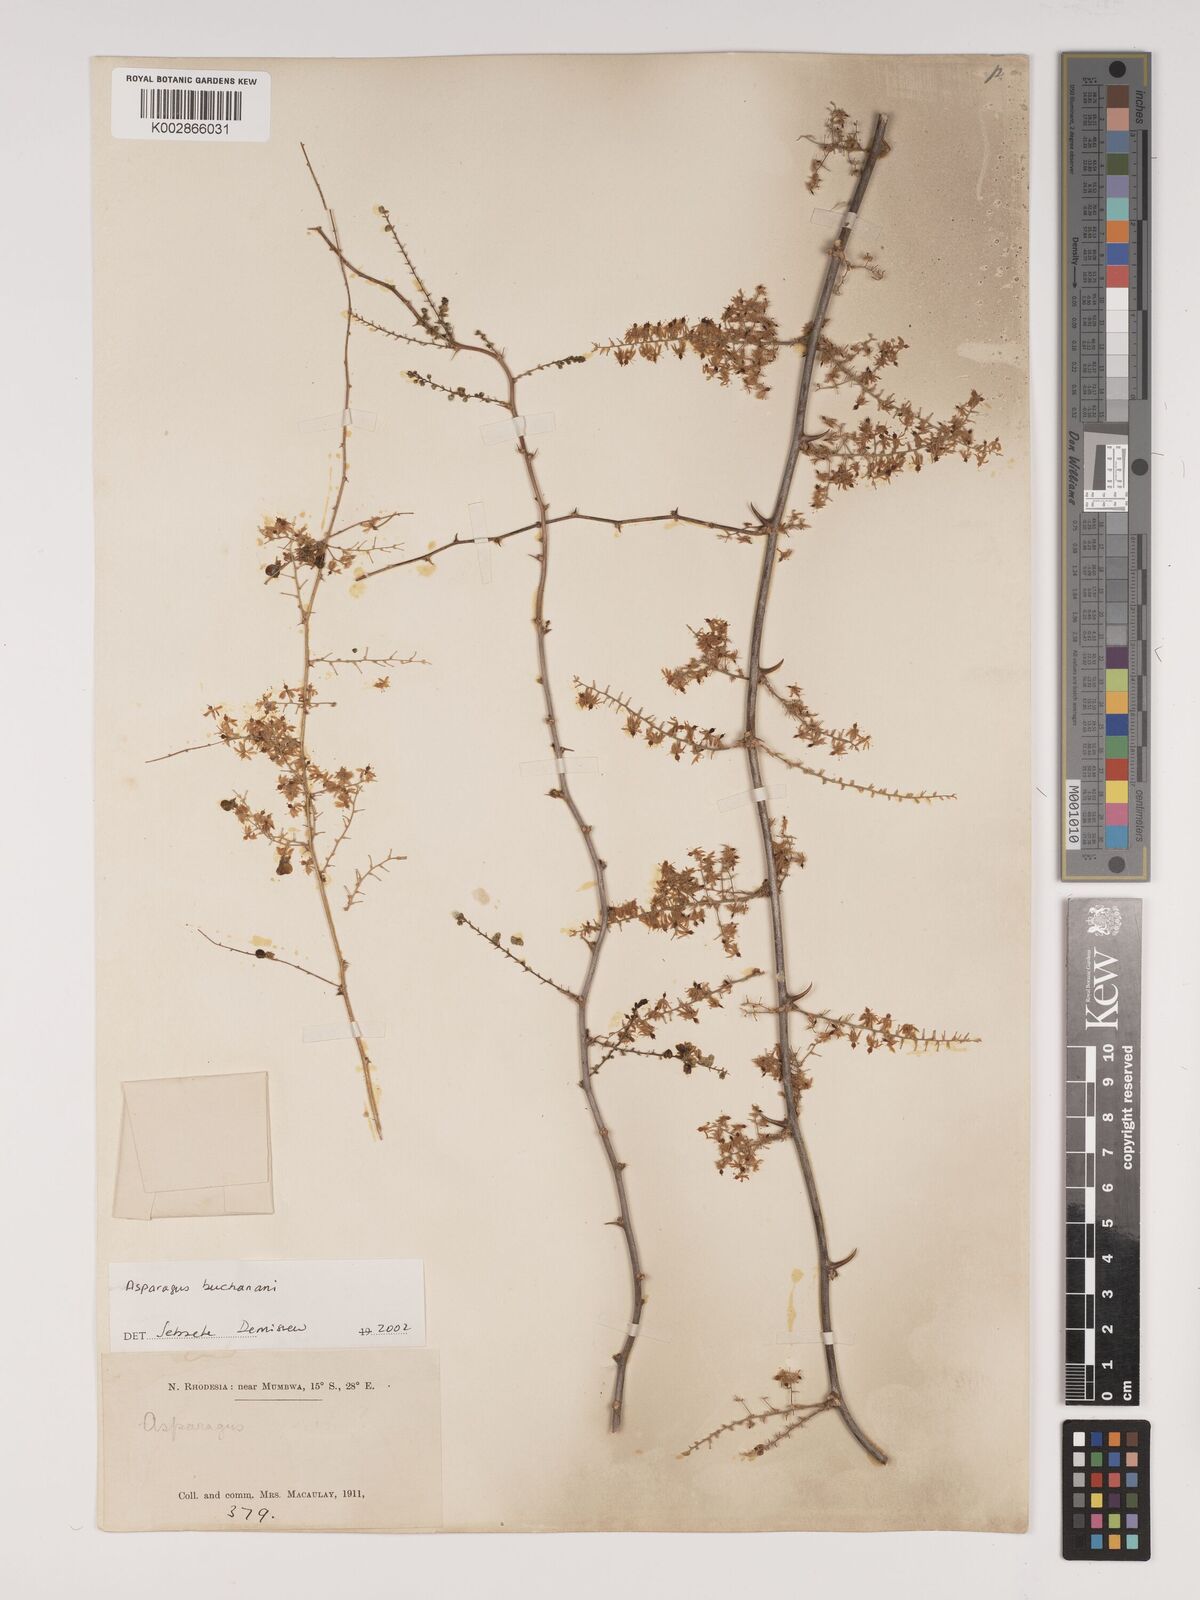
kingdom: Plantae
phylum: Tracheophyta
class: Liliopsida
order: Asparagales
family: Asparagaceae
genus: Asparagus
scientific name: Asparagus buchananii
